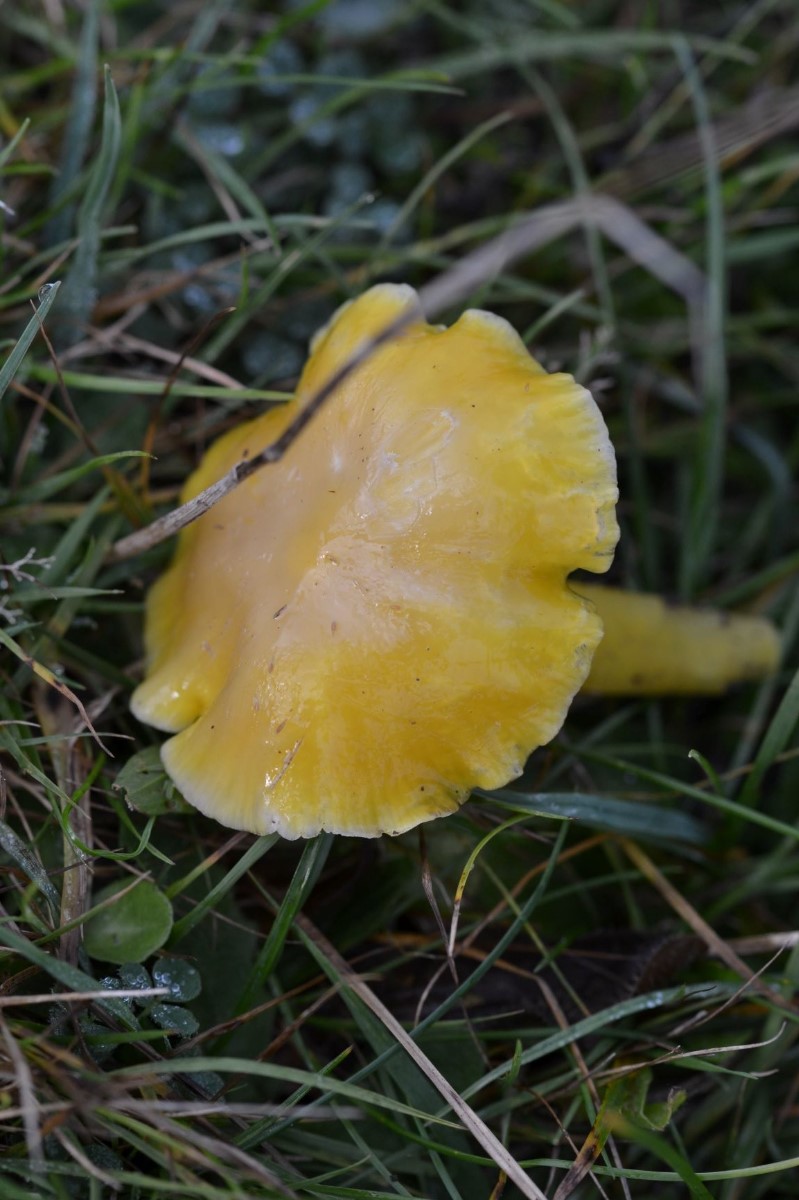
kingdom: Fungi
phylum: Basidiomycota
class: Agaricomycetes
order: Agaricales
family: Hygrophoraceae
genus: Hygrocybe
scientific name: Hygrocybe chlorophana
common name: gul vokshat
